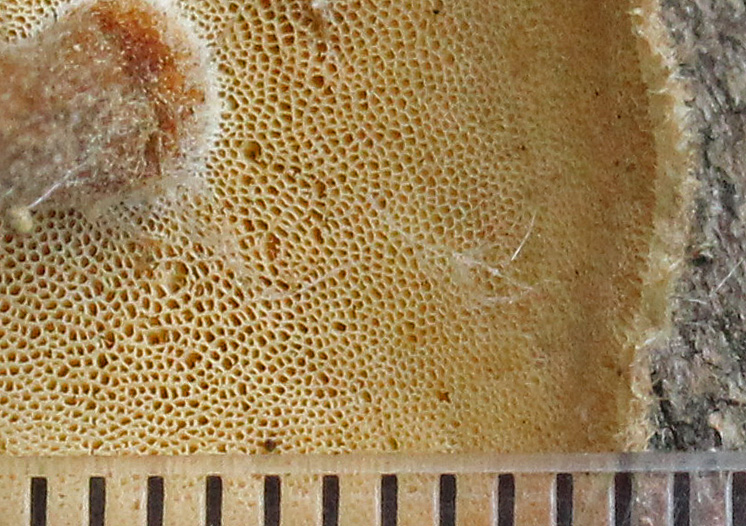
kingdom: Fungi
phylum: Basidiomycota
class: Agaricomycetes
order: Polyporales
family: Polyporaceae
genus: Lentinus
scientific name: Lentinus substrictus
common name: forårs-stilkporesvamp
